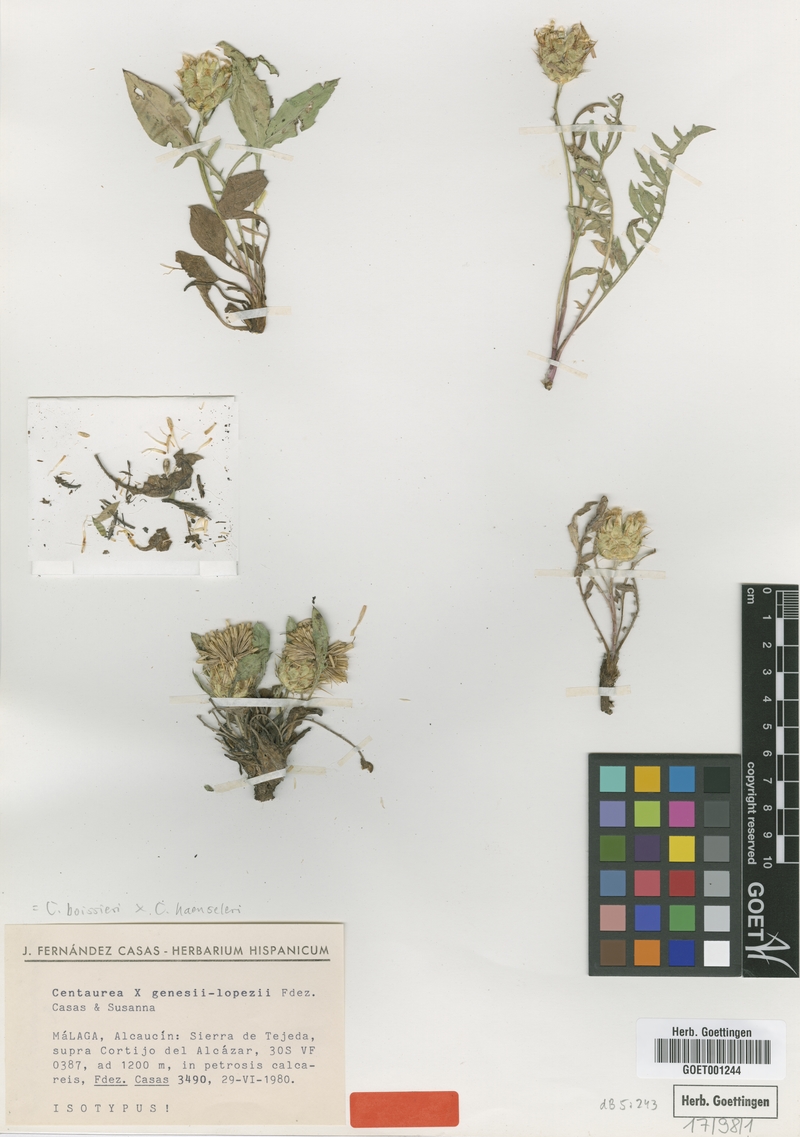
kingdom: Plantae
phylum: Tracheophyta
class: Magnoliopsida
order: Asterales
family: Asteraceae
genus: Centaurea
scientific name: Centaurea genesii-lopezii
